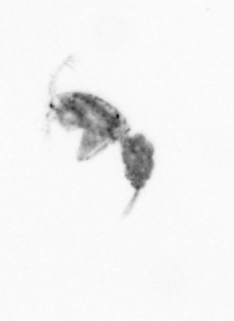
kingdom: Animalia
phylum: Arthropoda
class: Copepoda
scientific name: Copepoda
